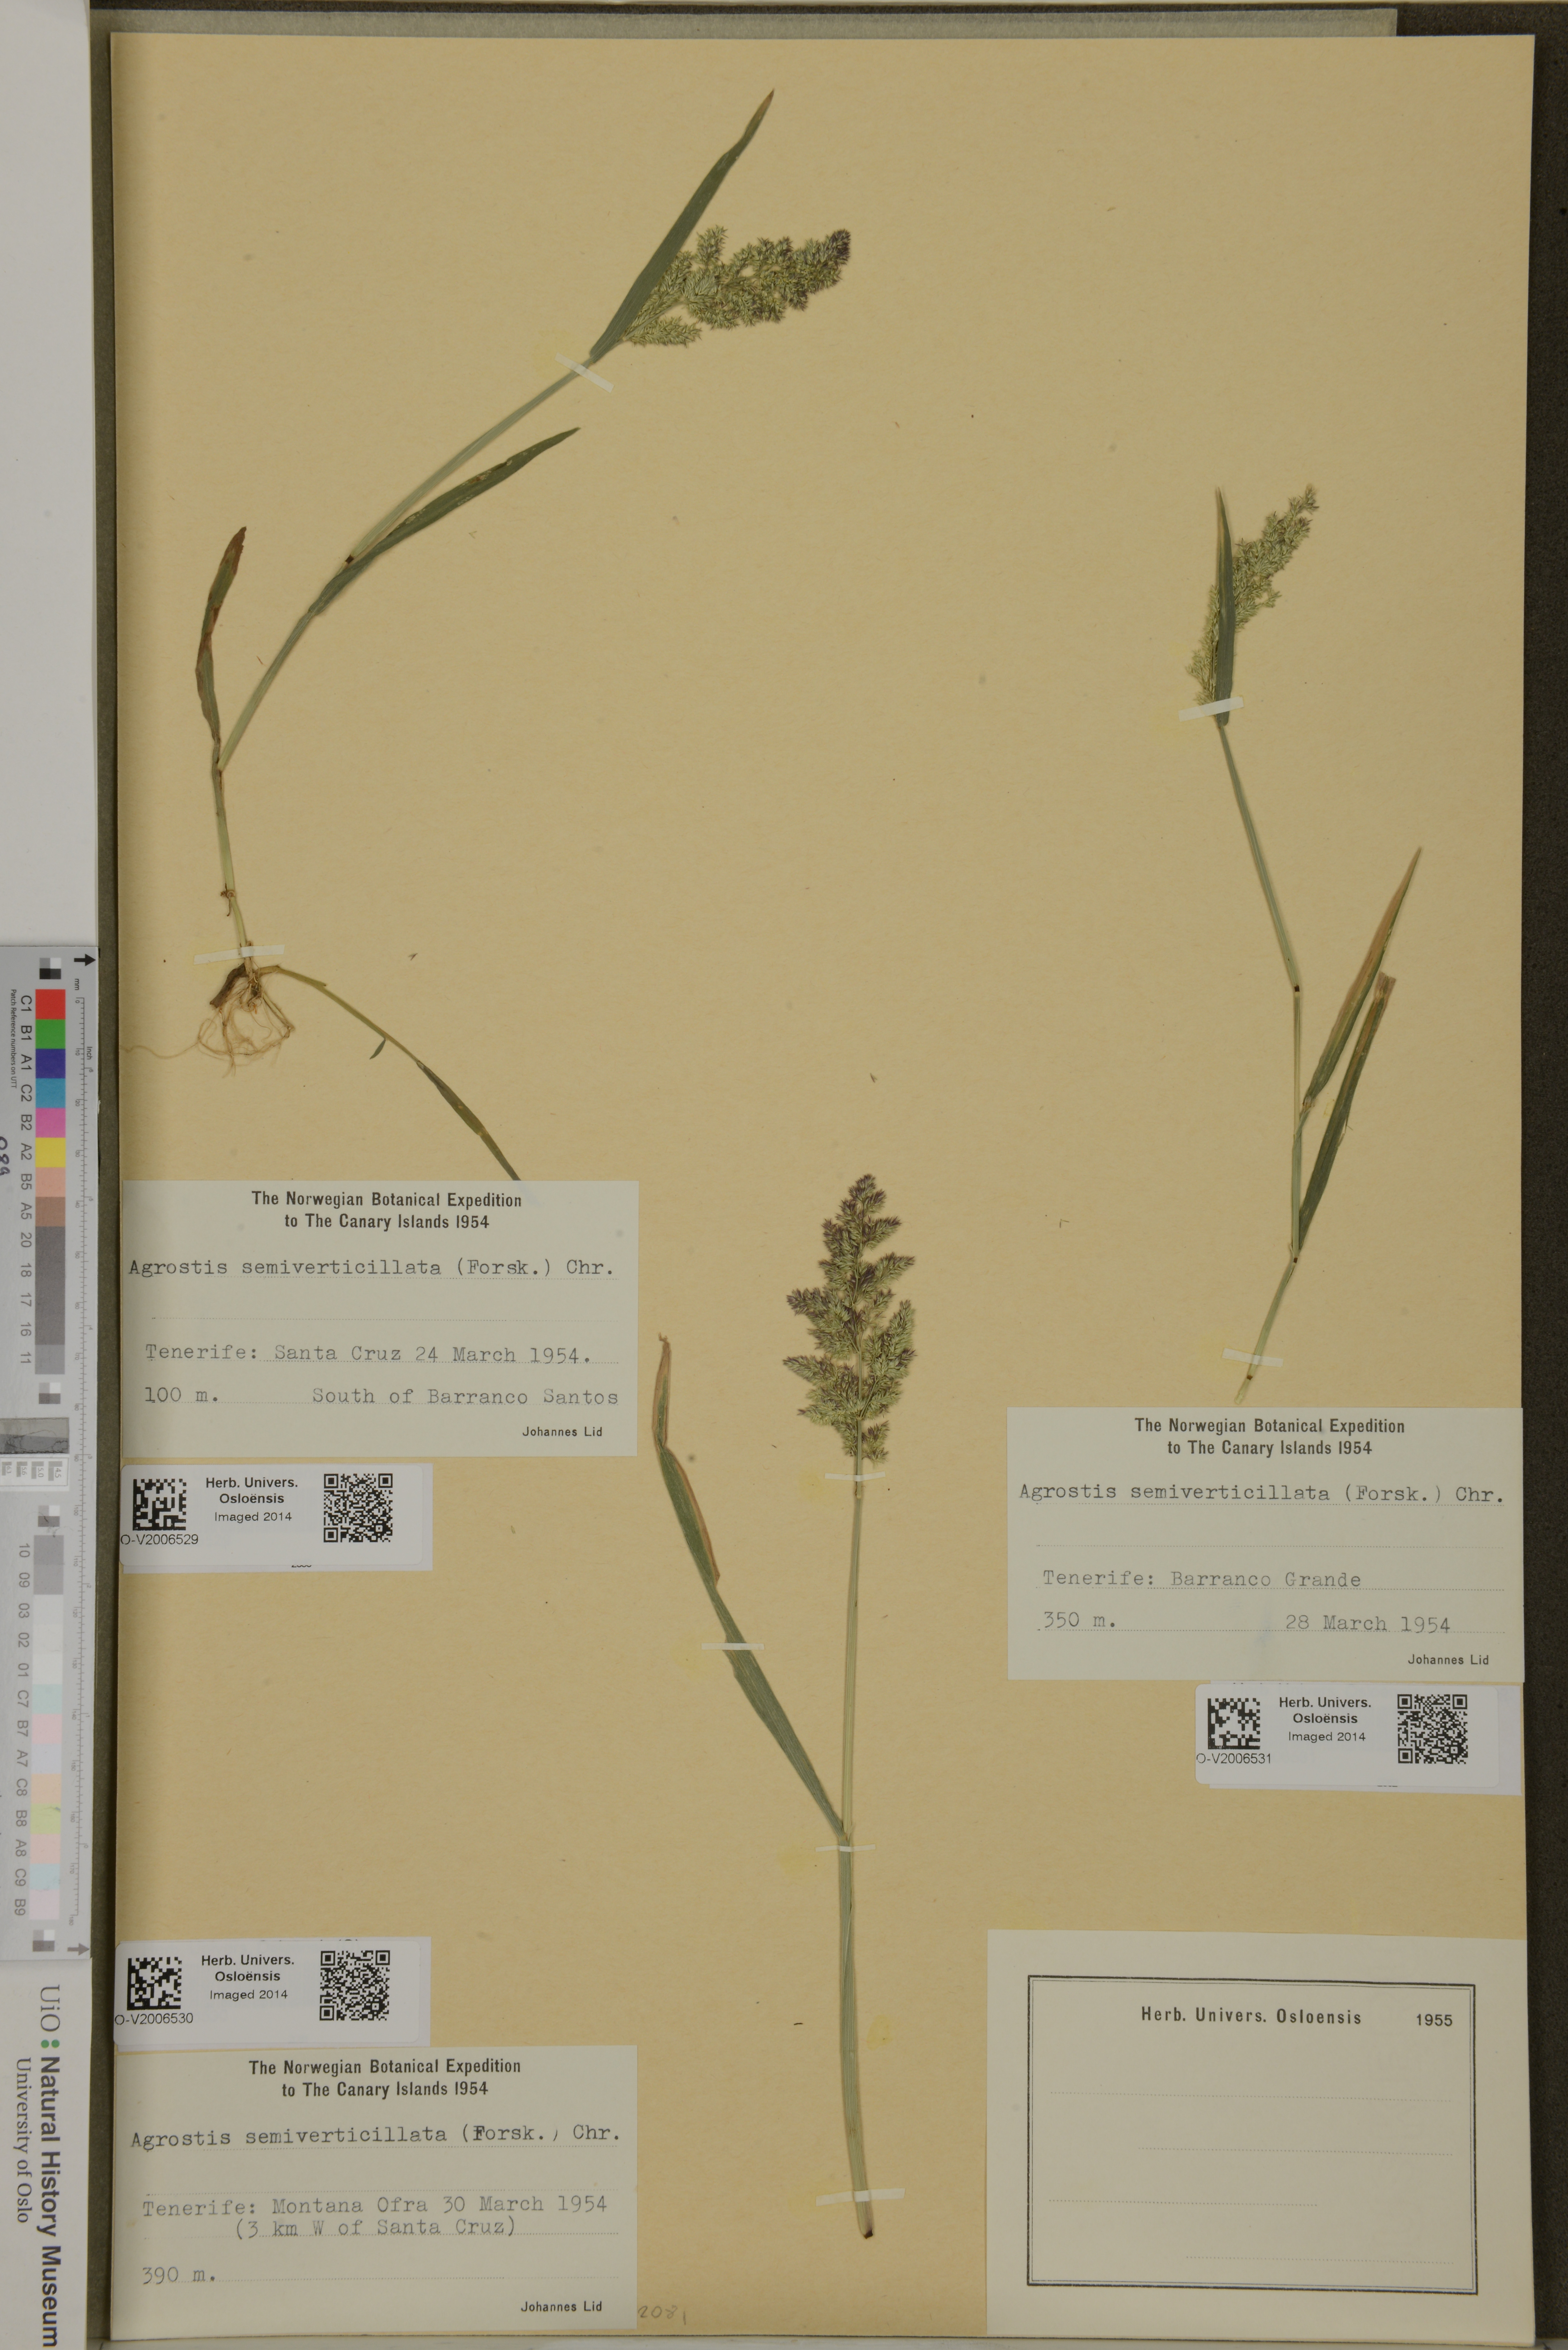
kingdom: Plantae
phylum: Tracheophyta
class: Liliopsida
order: Poales
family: Poaceae
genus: Polypogon
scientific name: Polypogon viridis
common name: Water bent
